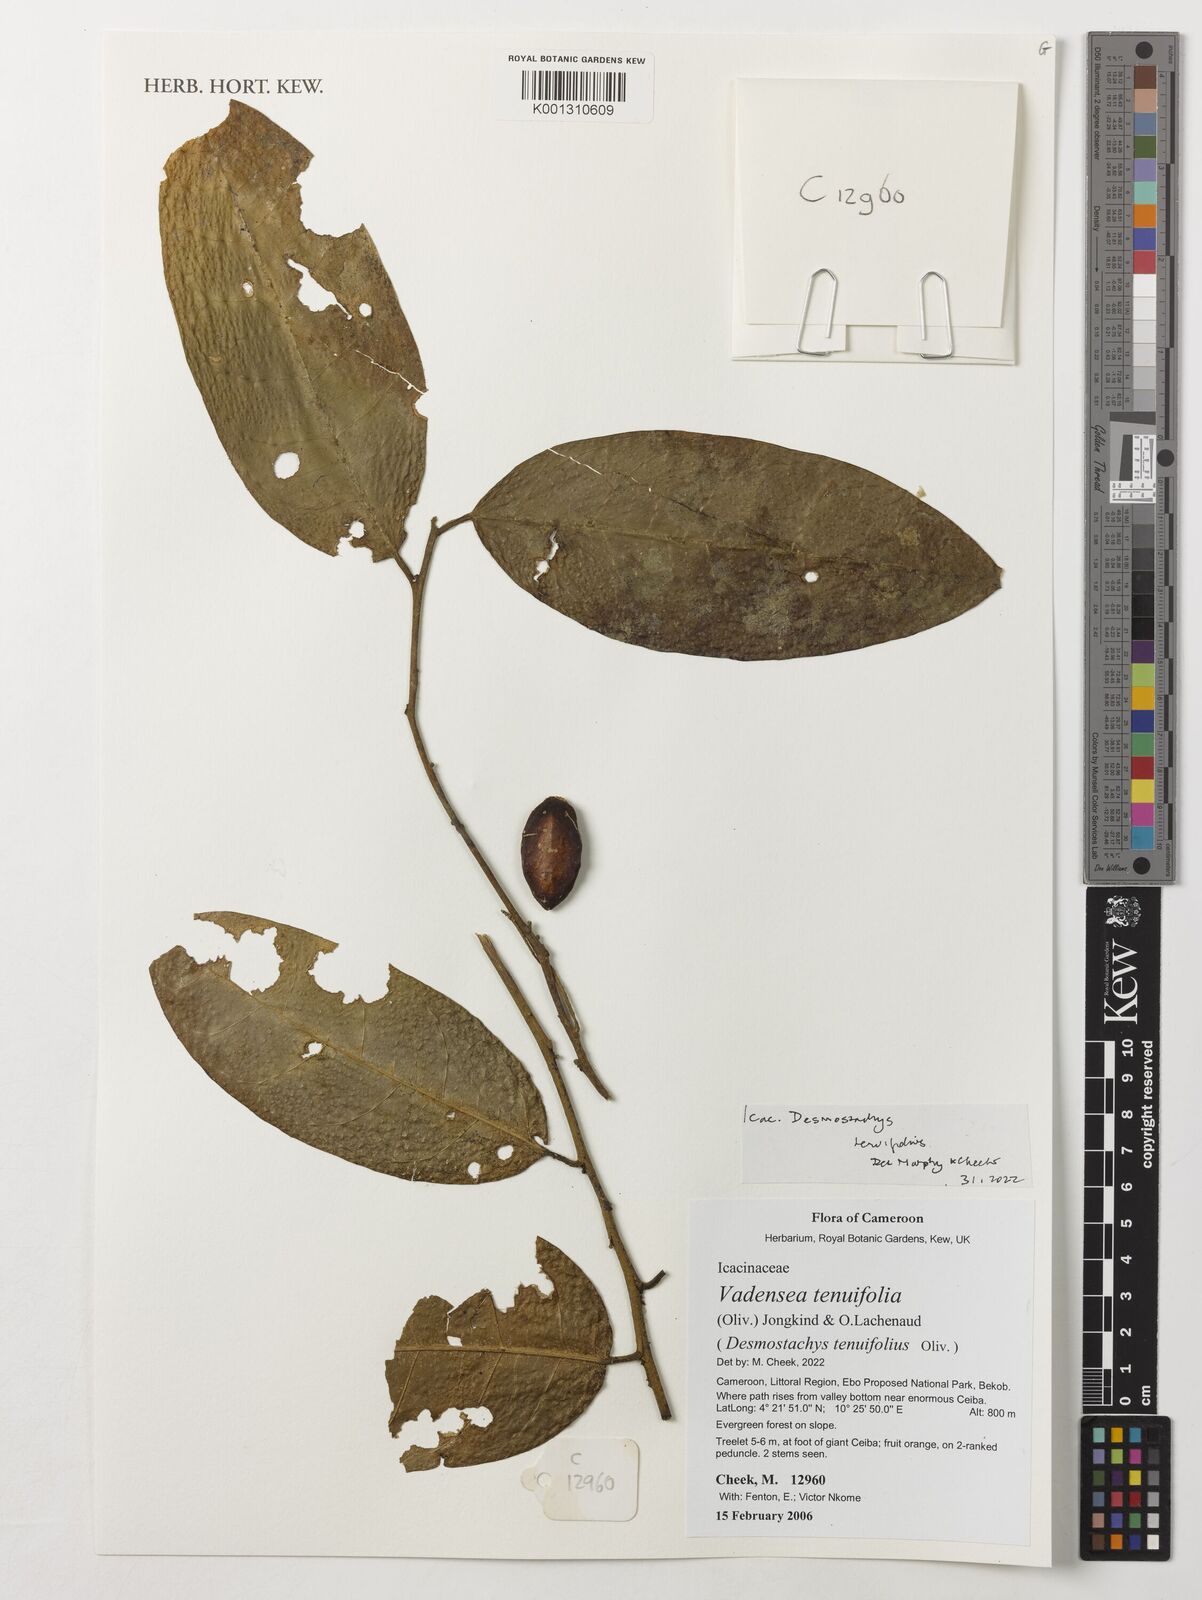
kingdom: Plantae
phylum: Tracheophyta
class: Magnoliopsida
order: Icacinales
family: Icacinaceae
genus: Vadensea
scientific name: Vadensea tenuifolia
